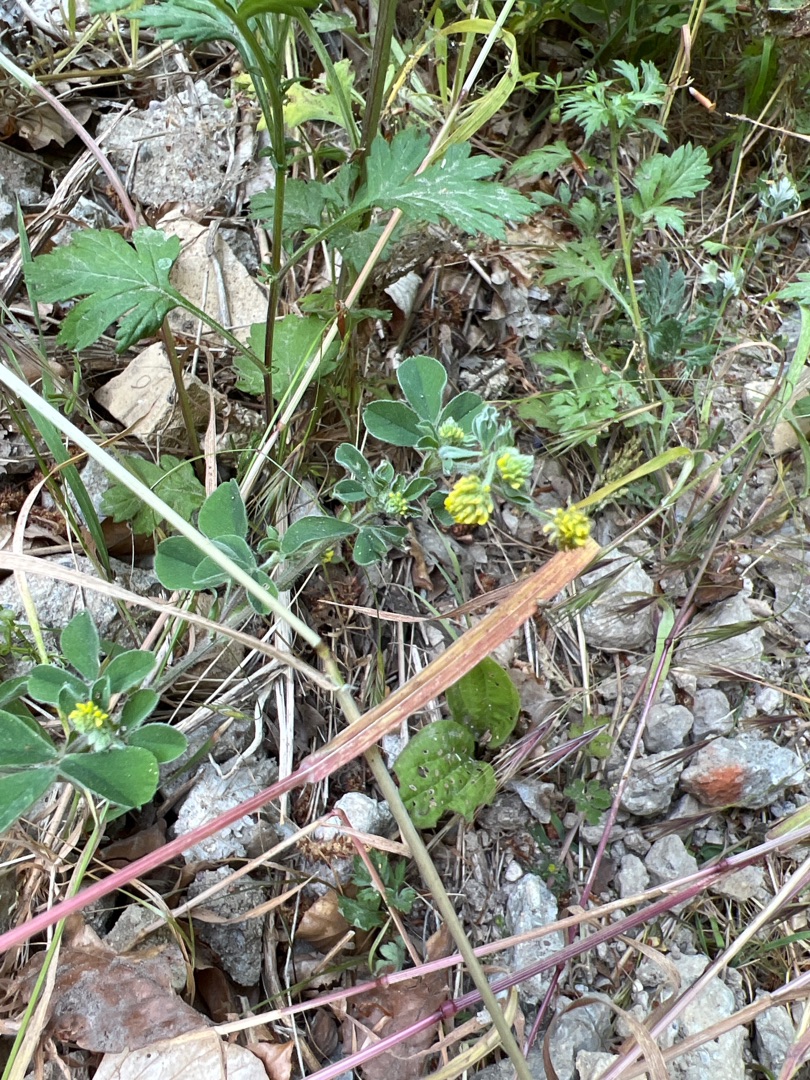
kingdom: Plantae
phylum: Tracheophyta
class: Magnoliopsida
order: Fabales
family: Fabaceae
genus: Medicago
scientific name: Medicago lupulina
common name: Humle-sneglebælg
